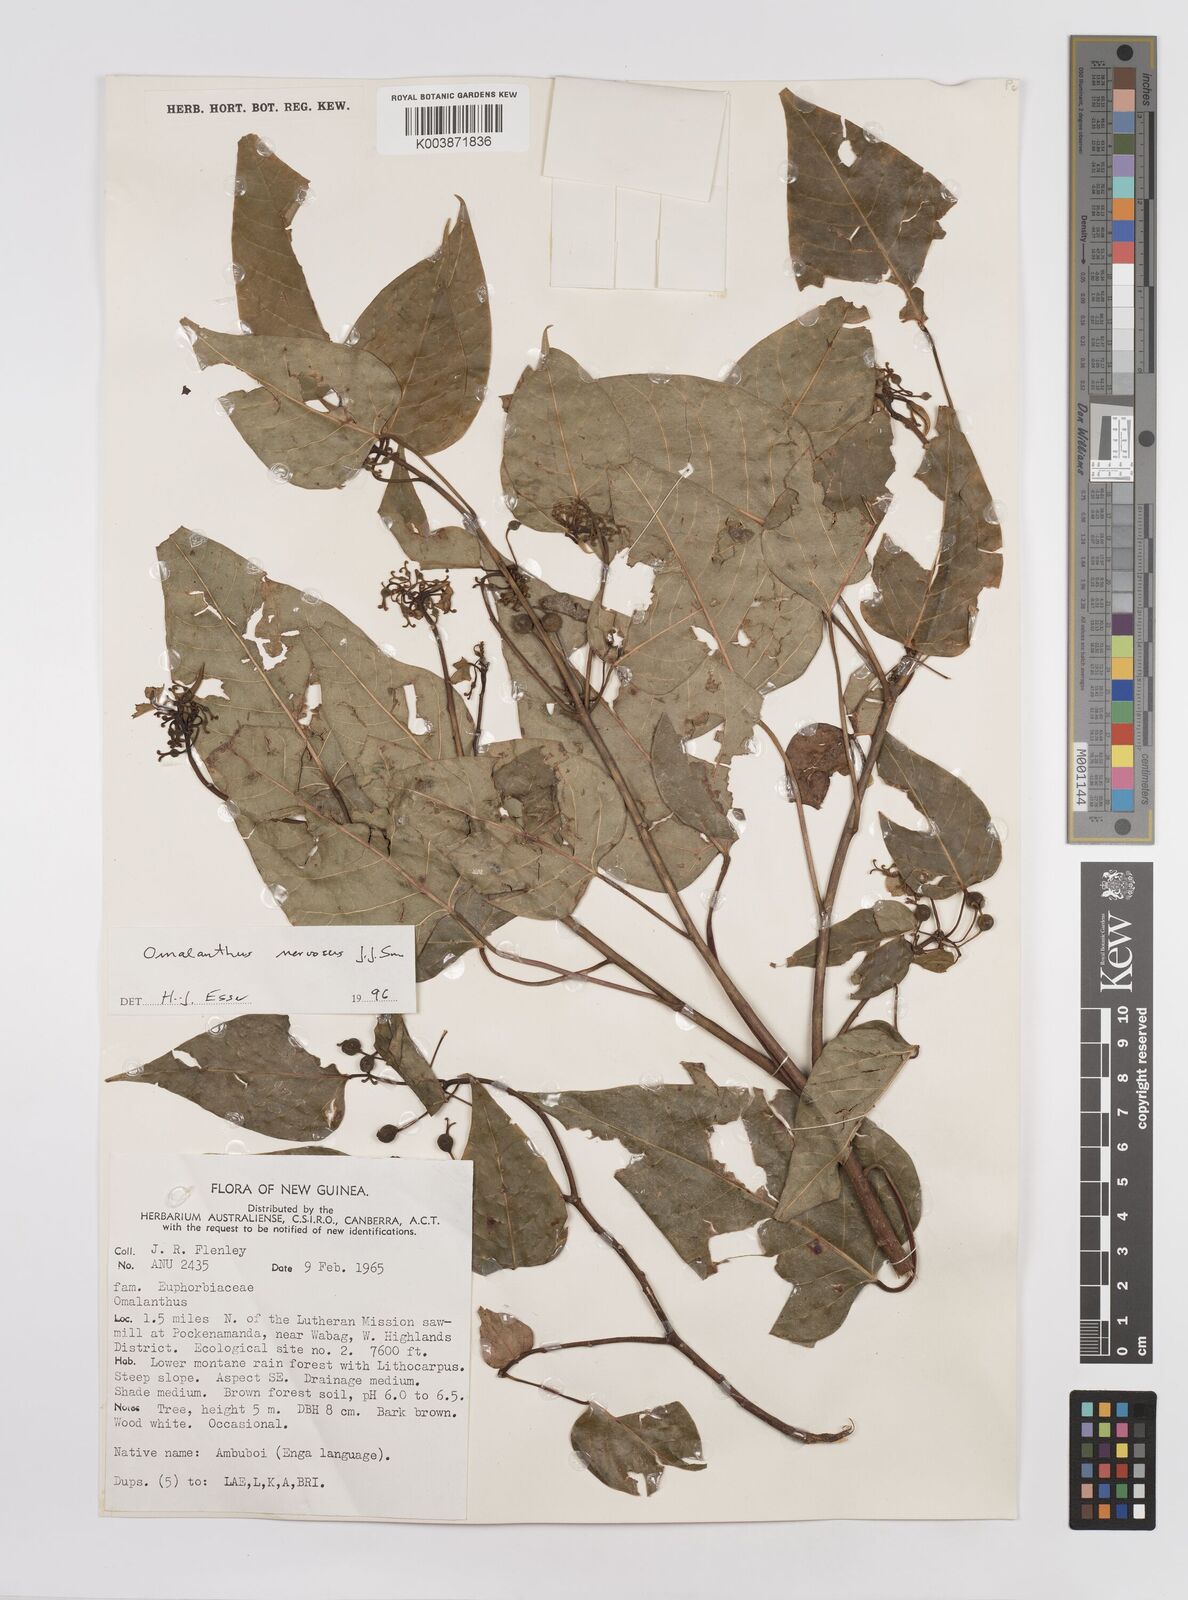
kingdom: Plantae
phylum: Tracheophyta
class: Magnoliopsida
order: Malpighiales
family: Euphorbiaceae
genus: Homalanthus
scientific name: Homalanthus nervosus
